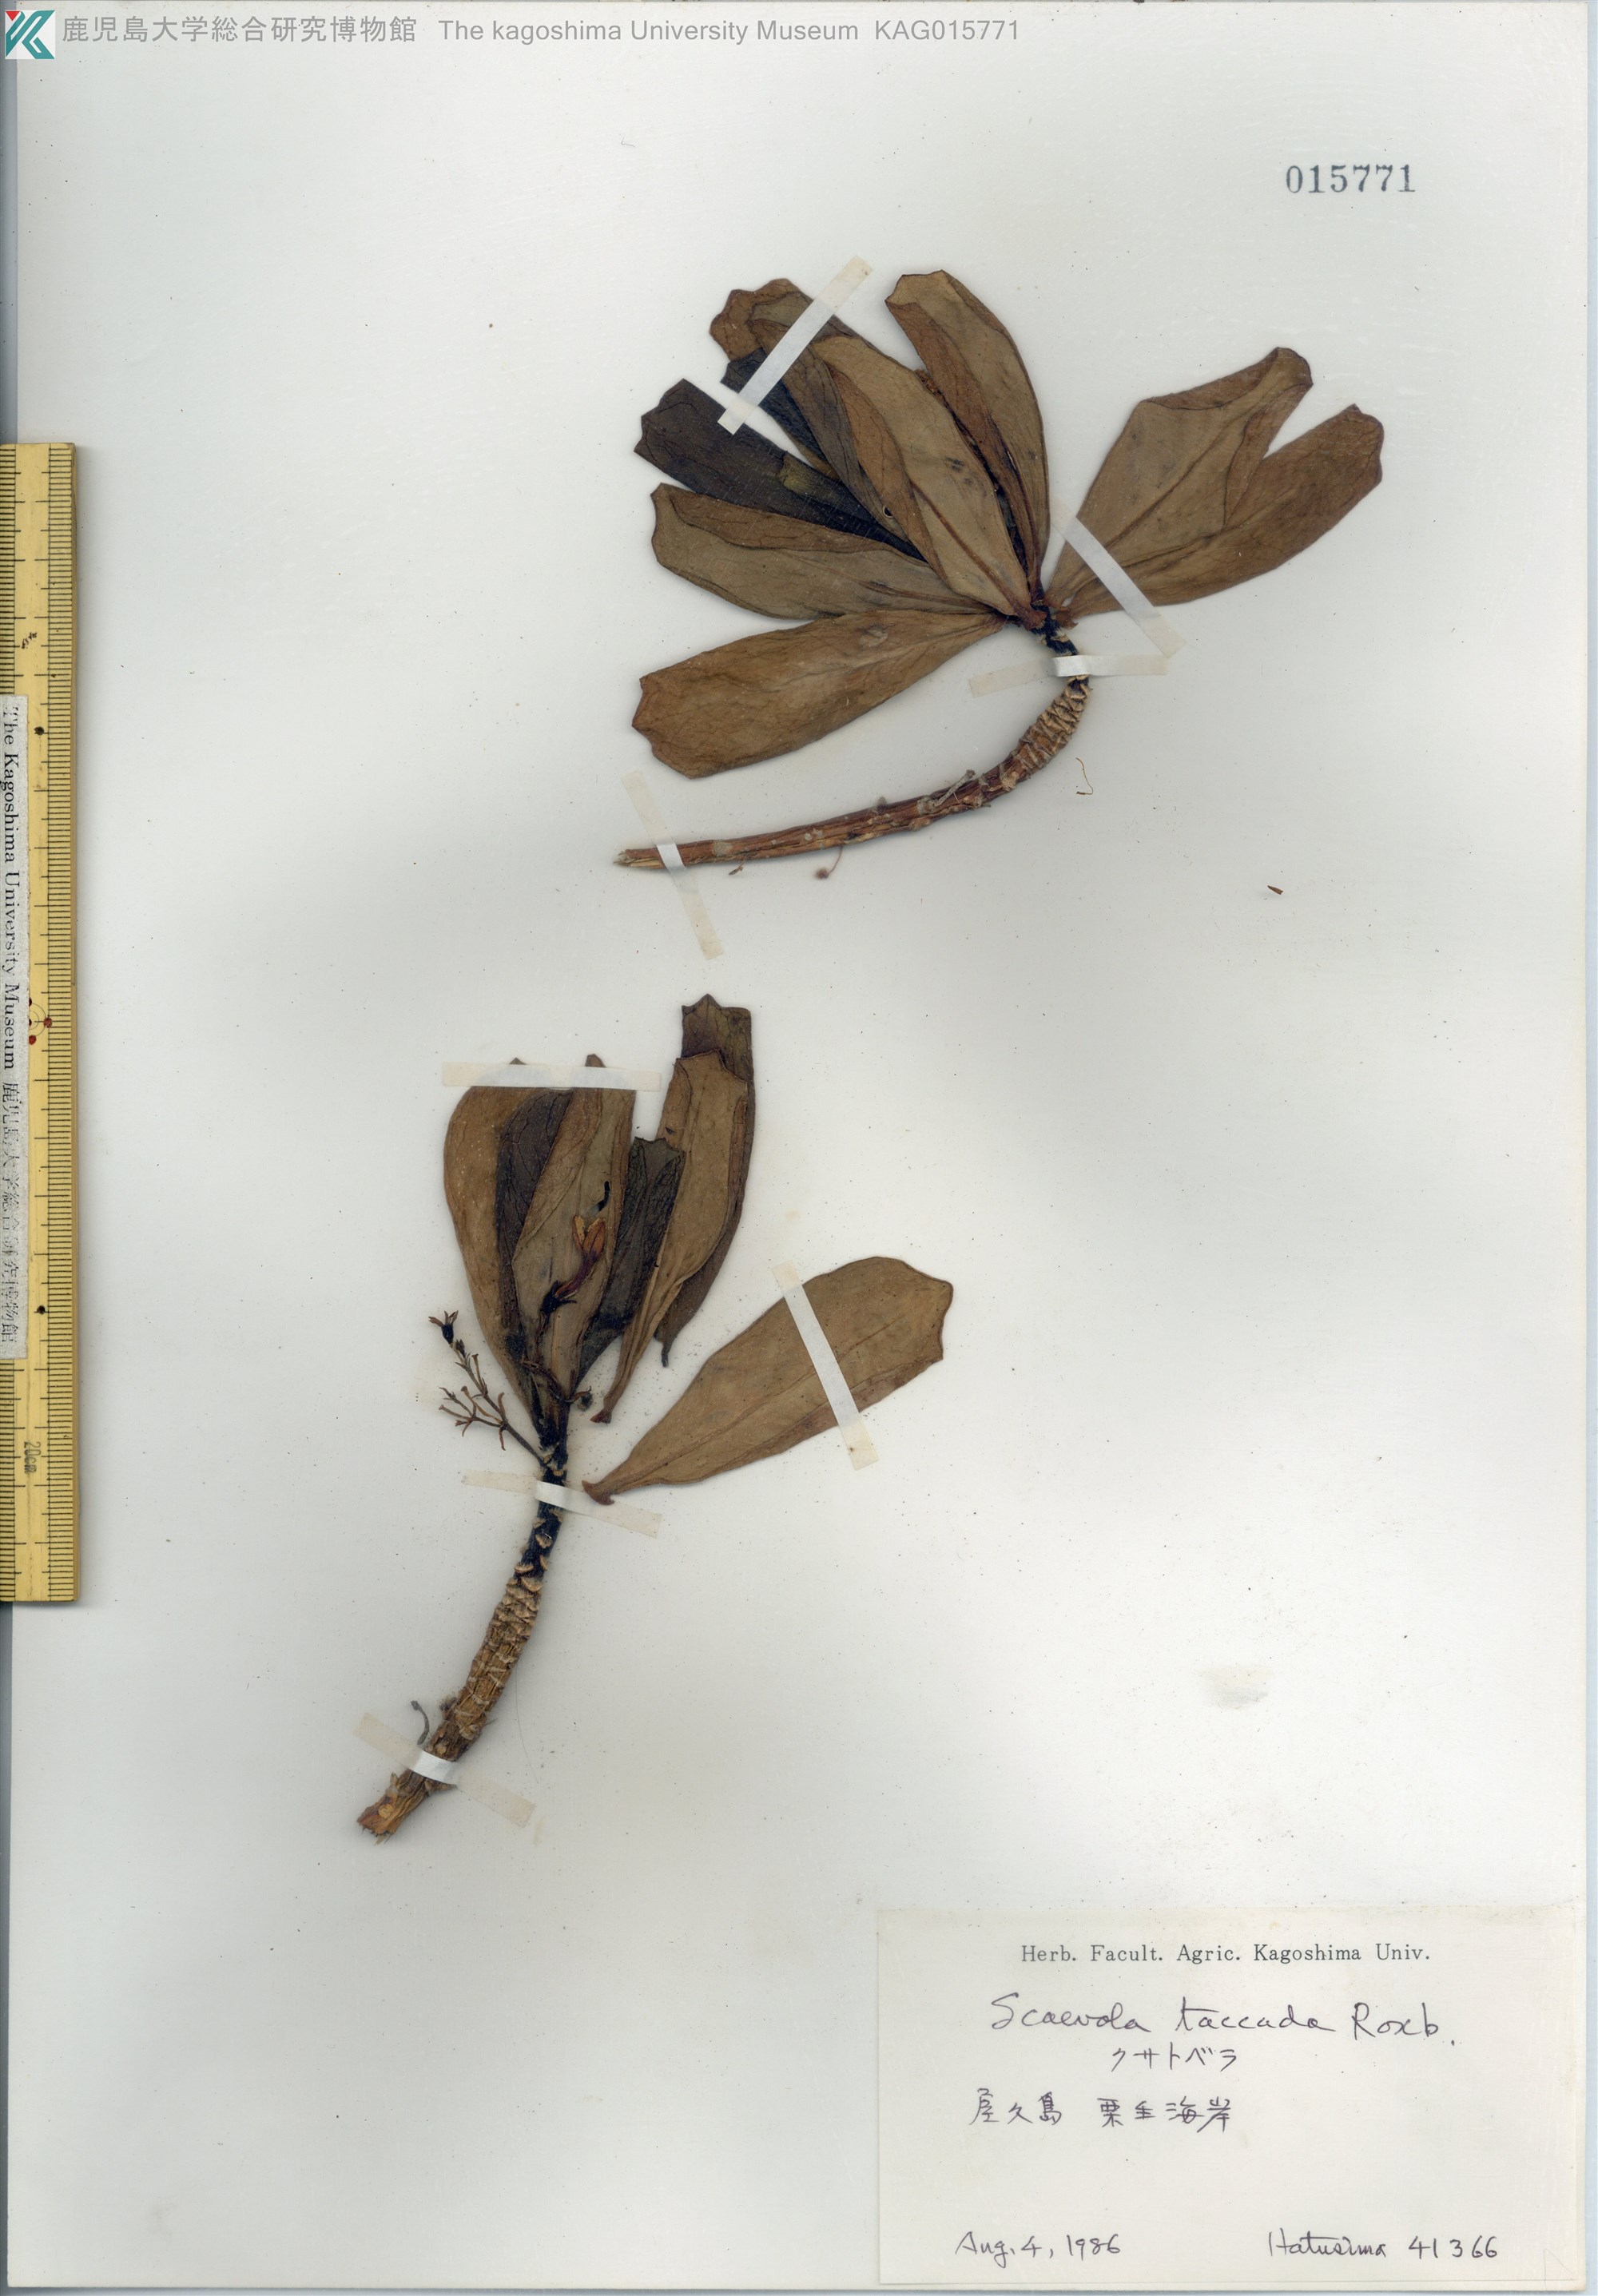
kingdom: Plantae
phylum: Tracheophyta
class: Magnoliopsida
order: Asterales
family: Goodeniaceae
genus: Scaevola
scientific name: Scaevola taccada
